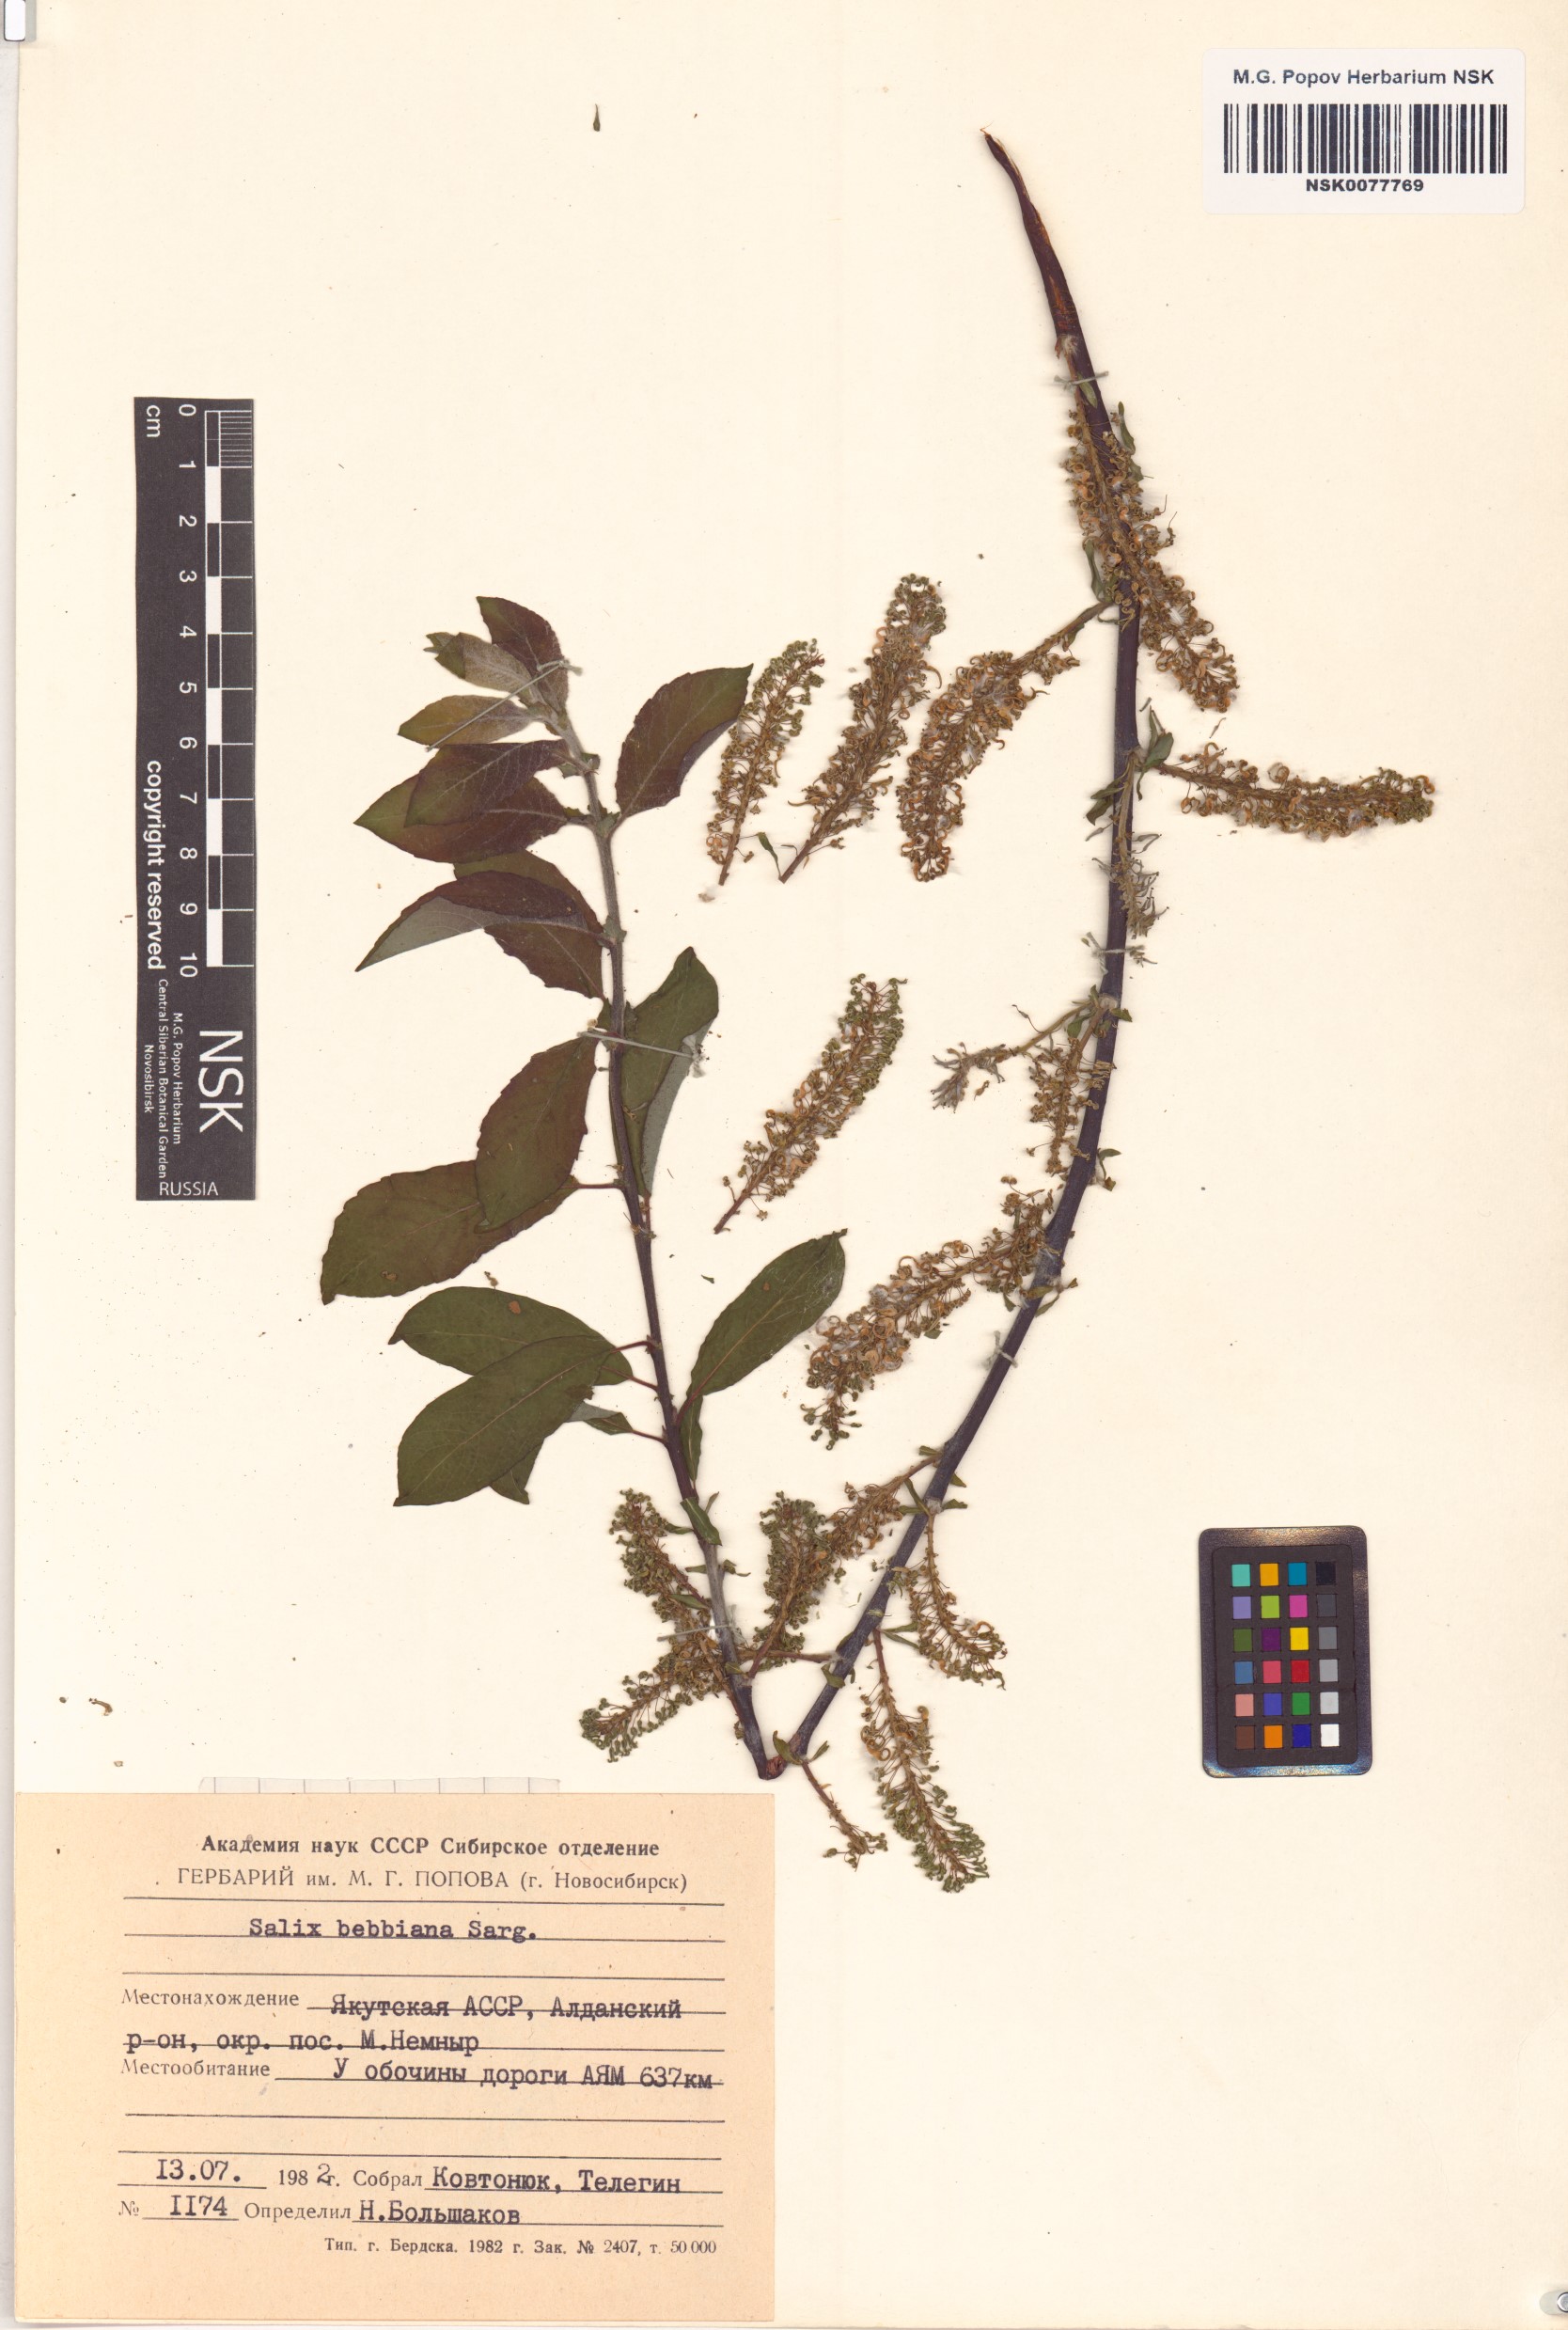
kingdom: Plantae
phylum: Tracheophyta
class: Magnoliopsida
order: Malpighiales
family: Salicaceae
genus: Salix
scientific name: Salix bebbiana
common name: Bebb's willow
